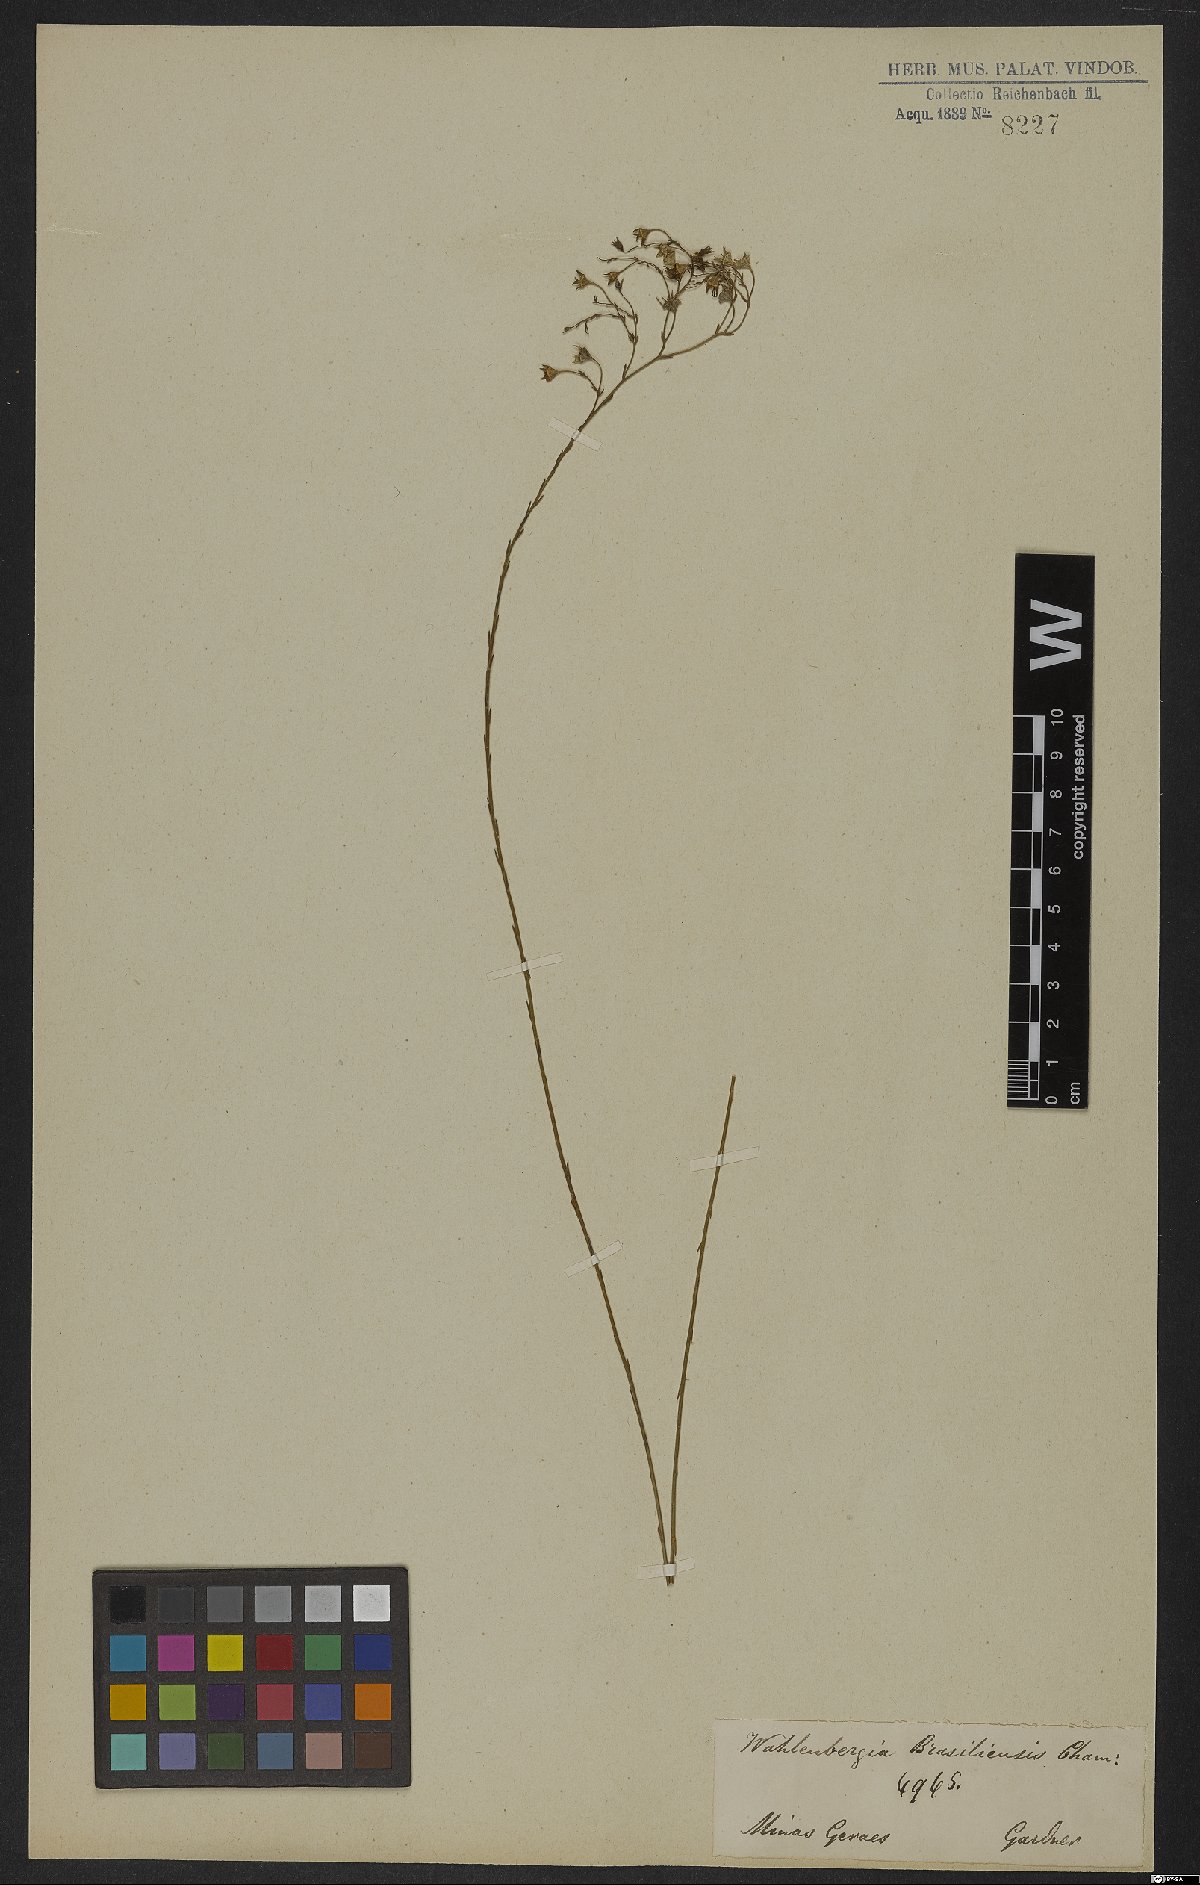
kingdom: Plantae
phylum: Tracheophyta
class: Magnoliopsida
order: Asterales
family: Campanulaceae
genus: Wahlenbergia
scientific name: Wahlenbergia brasiliensis
